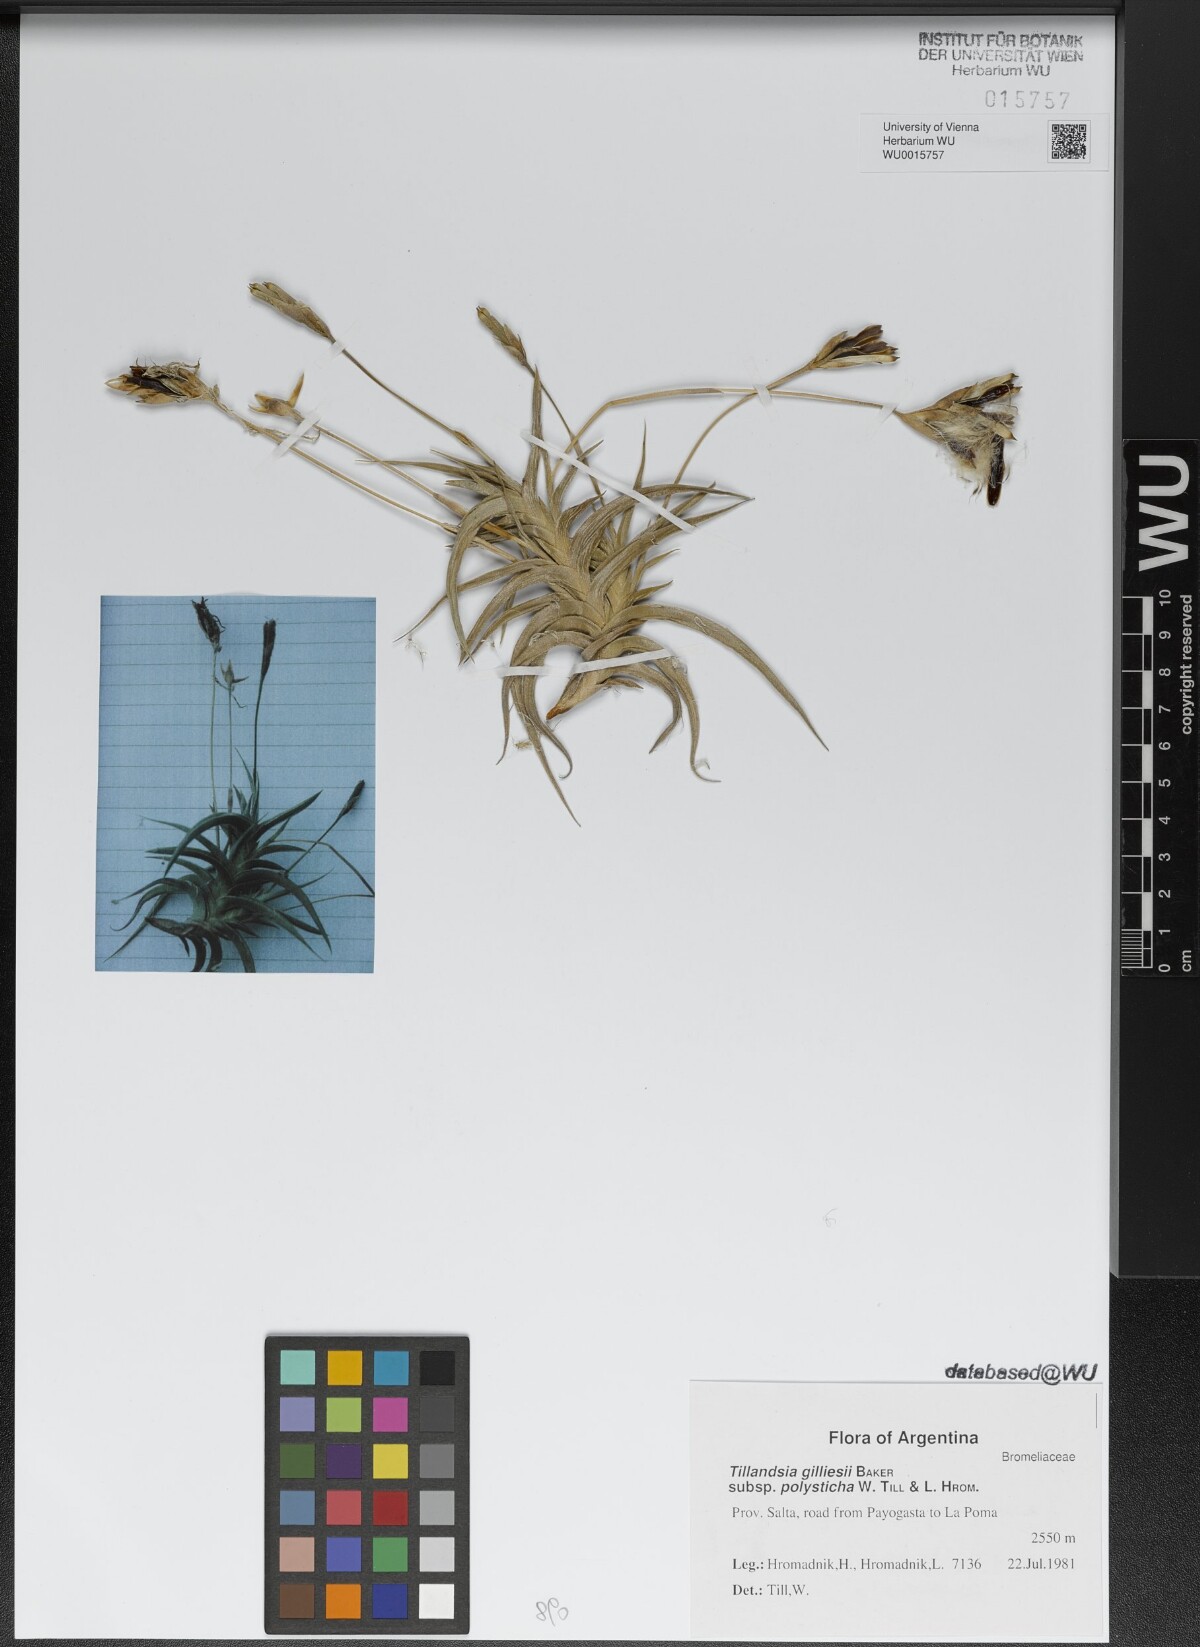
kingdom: Plantae
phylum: Tracheophyta
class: Liliopsida
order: Poales
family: Bromeliaceae
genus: Tillandsia
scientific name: Tillandsia gilliesii
